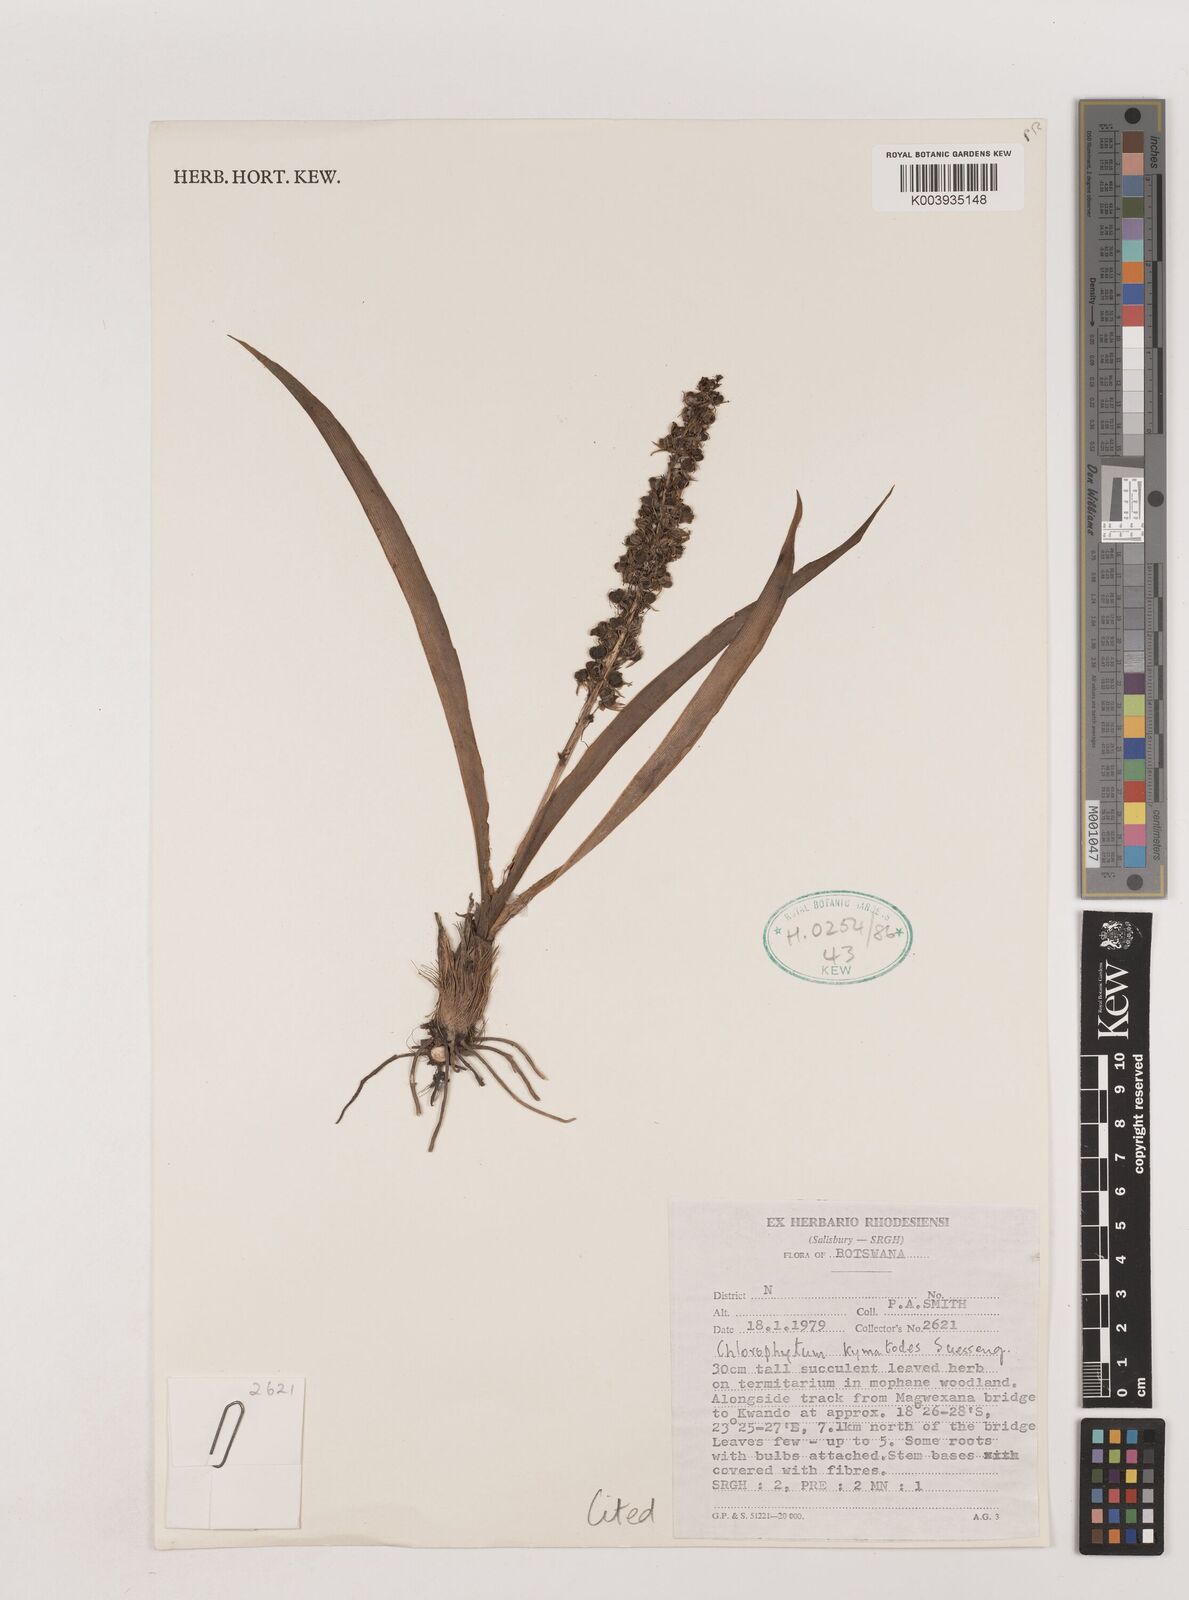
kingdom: Plantae
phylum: Tracheophyta
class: Liliopsida
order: Asparagales
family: Asparagaceae
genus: Chlorophytum
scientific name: Chlorophytum pauper
